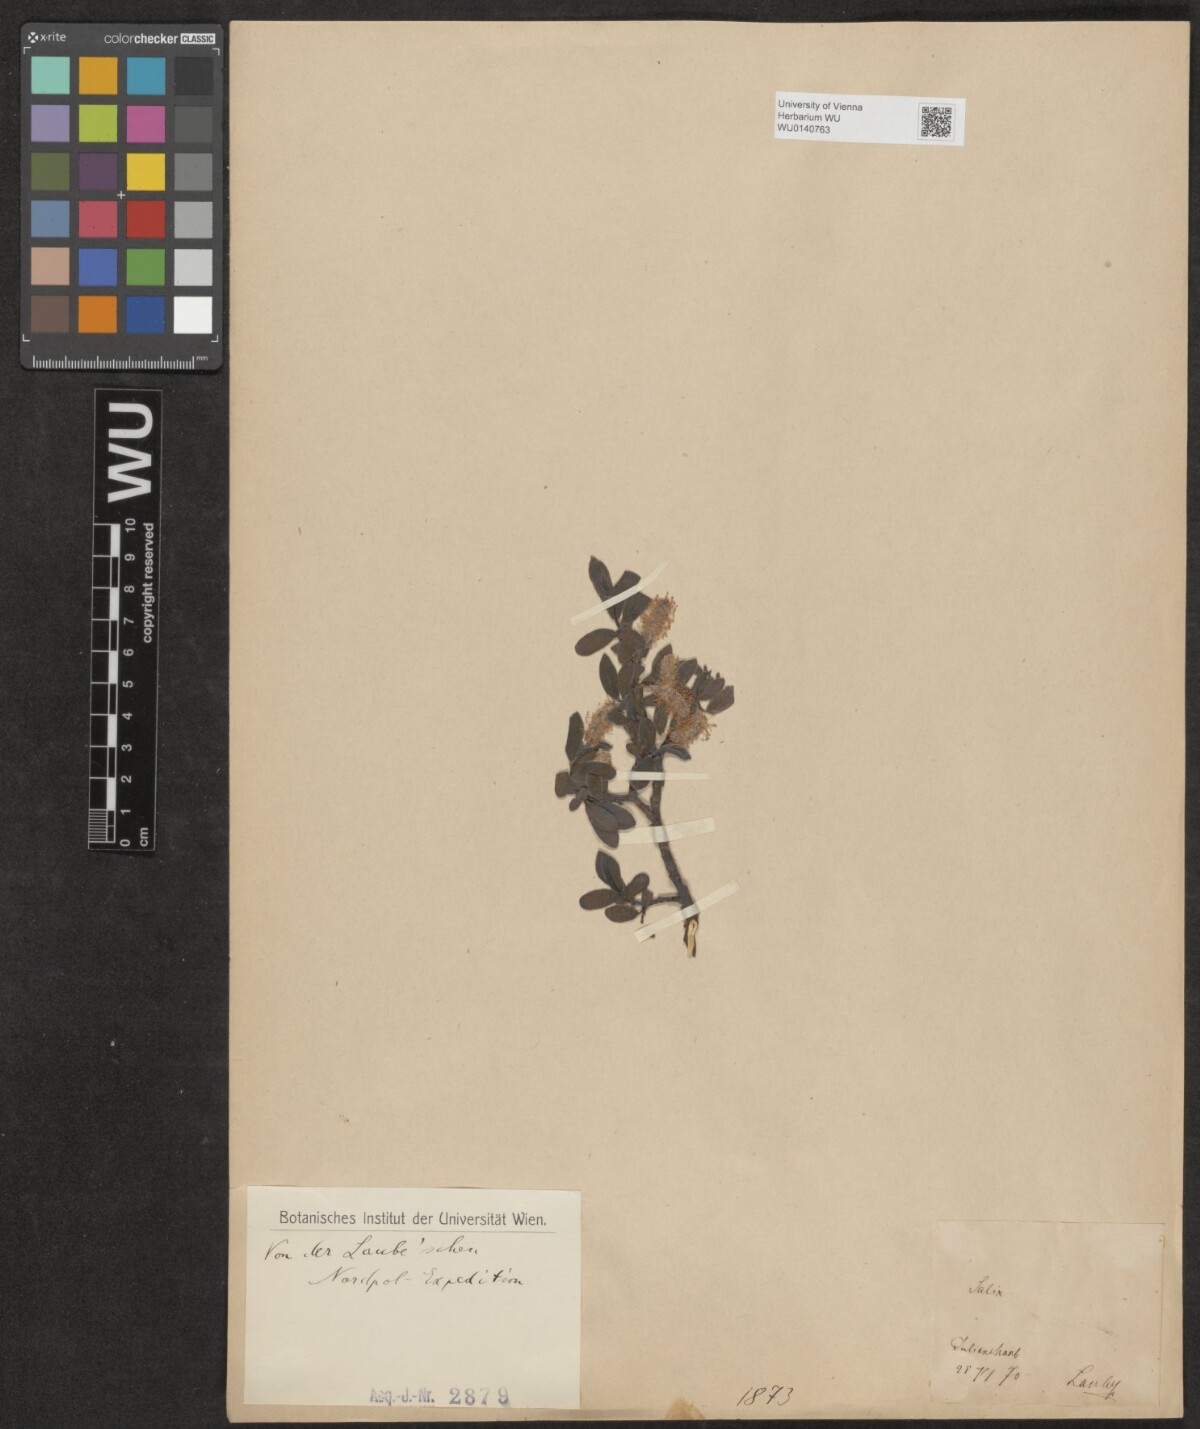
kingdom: Plantae
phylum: Tracheophyta
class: Magnoliopsida
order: Malpighiales
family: Salicaceae
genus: Salix
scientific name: Salix
